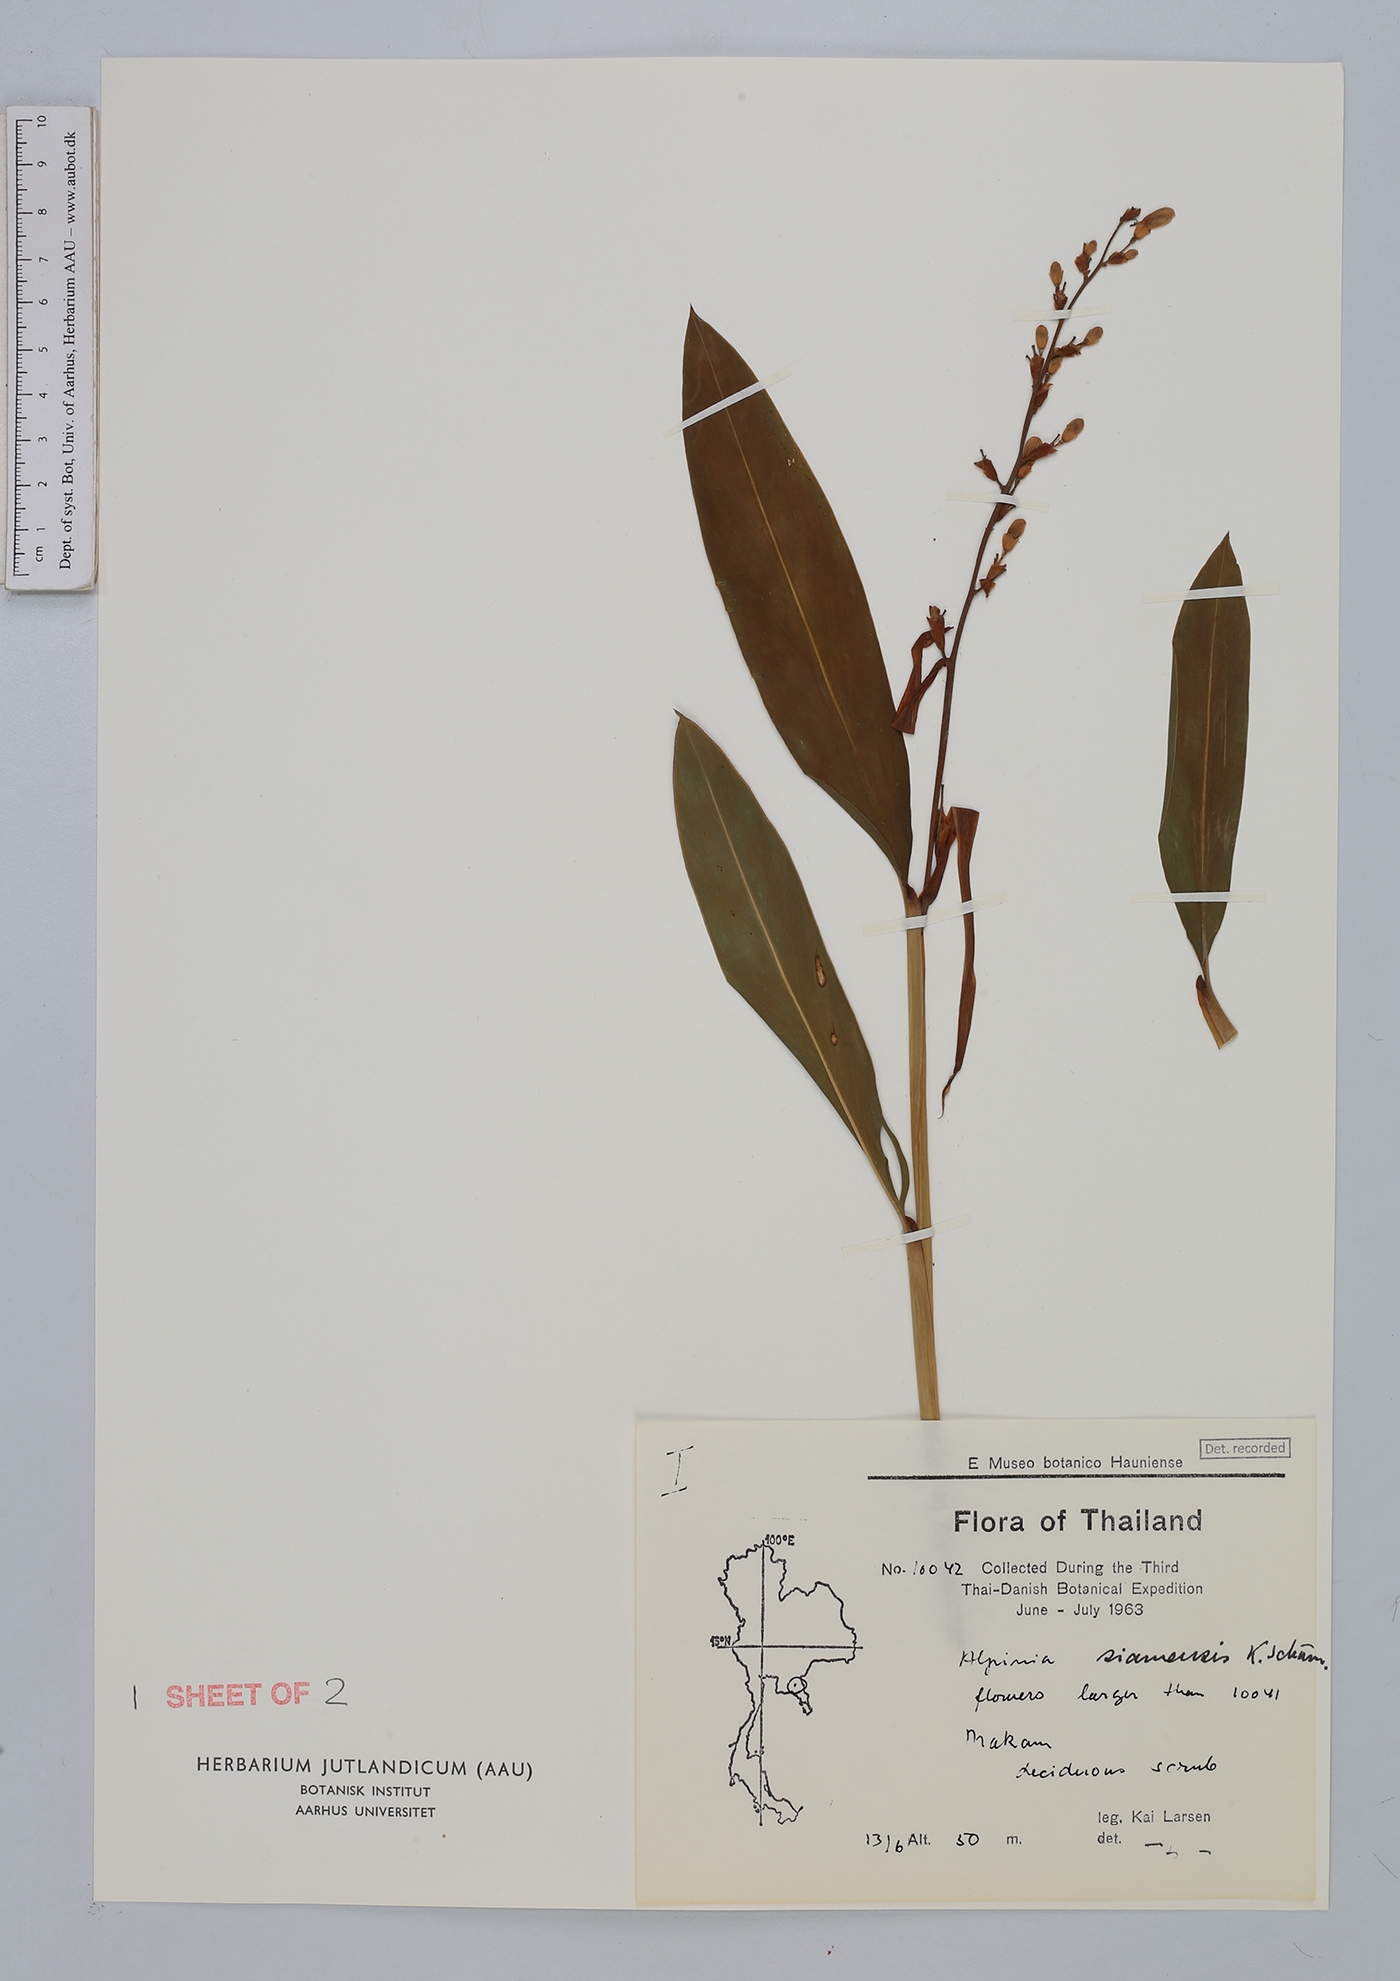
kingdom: Plantae
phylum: Tracheophyta
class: Liliopsida
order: Zingiberales
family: Zingiberaceae
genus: Alpinia
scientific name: Alpinia siamensis
